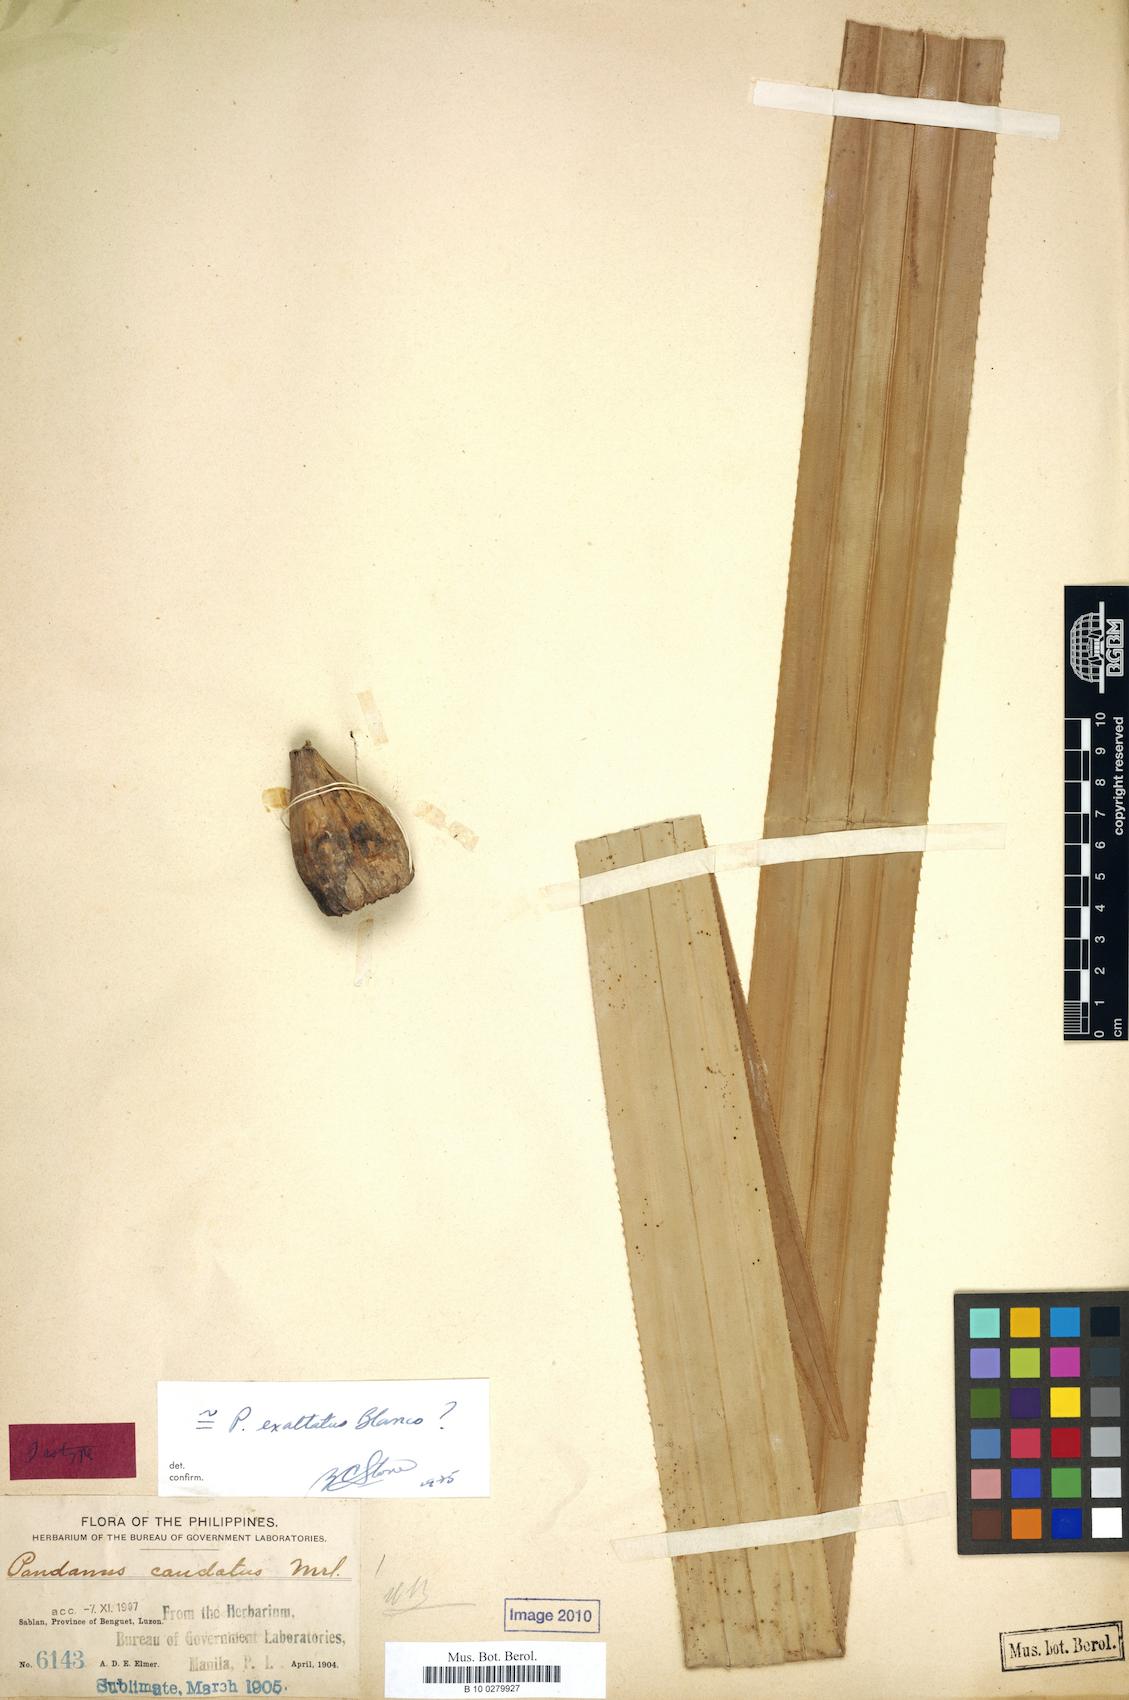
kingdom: Plantae
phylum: Tracheophyta
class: Liliopsida
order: Pandanales
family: Pandanaceae
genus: Pandanus
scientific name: Pandanus exaltatus
